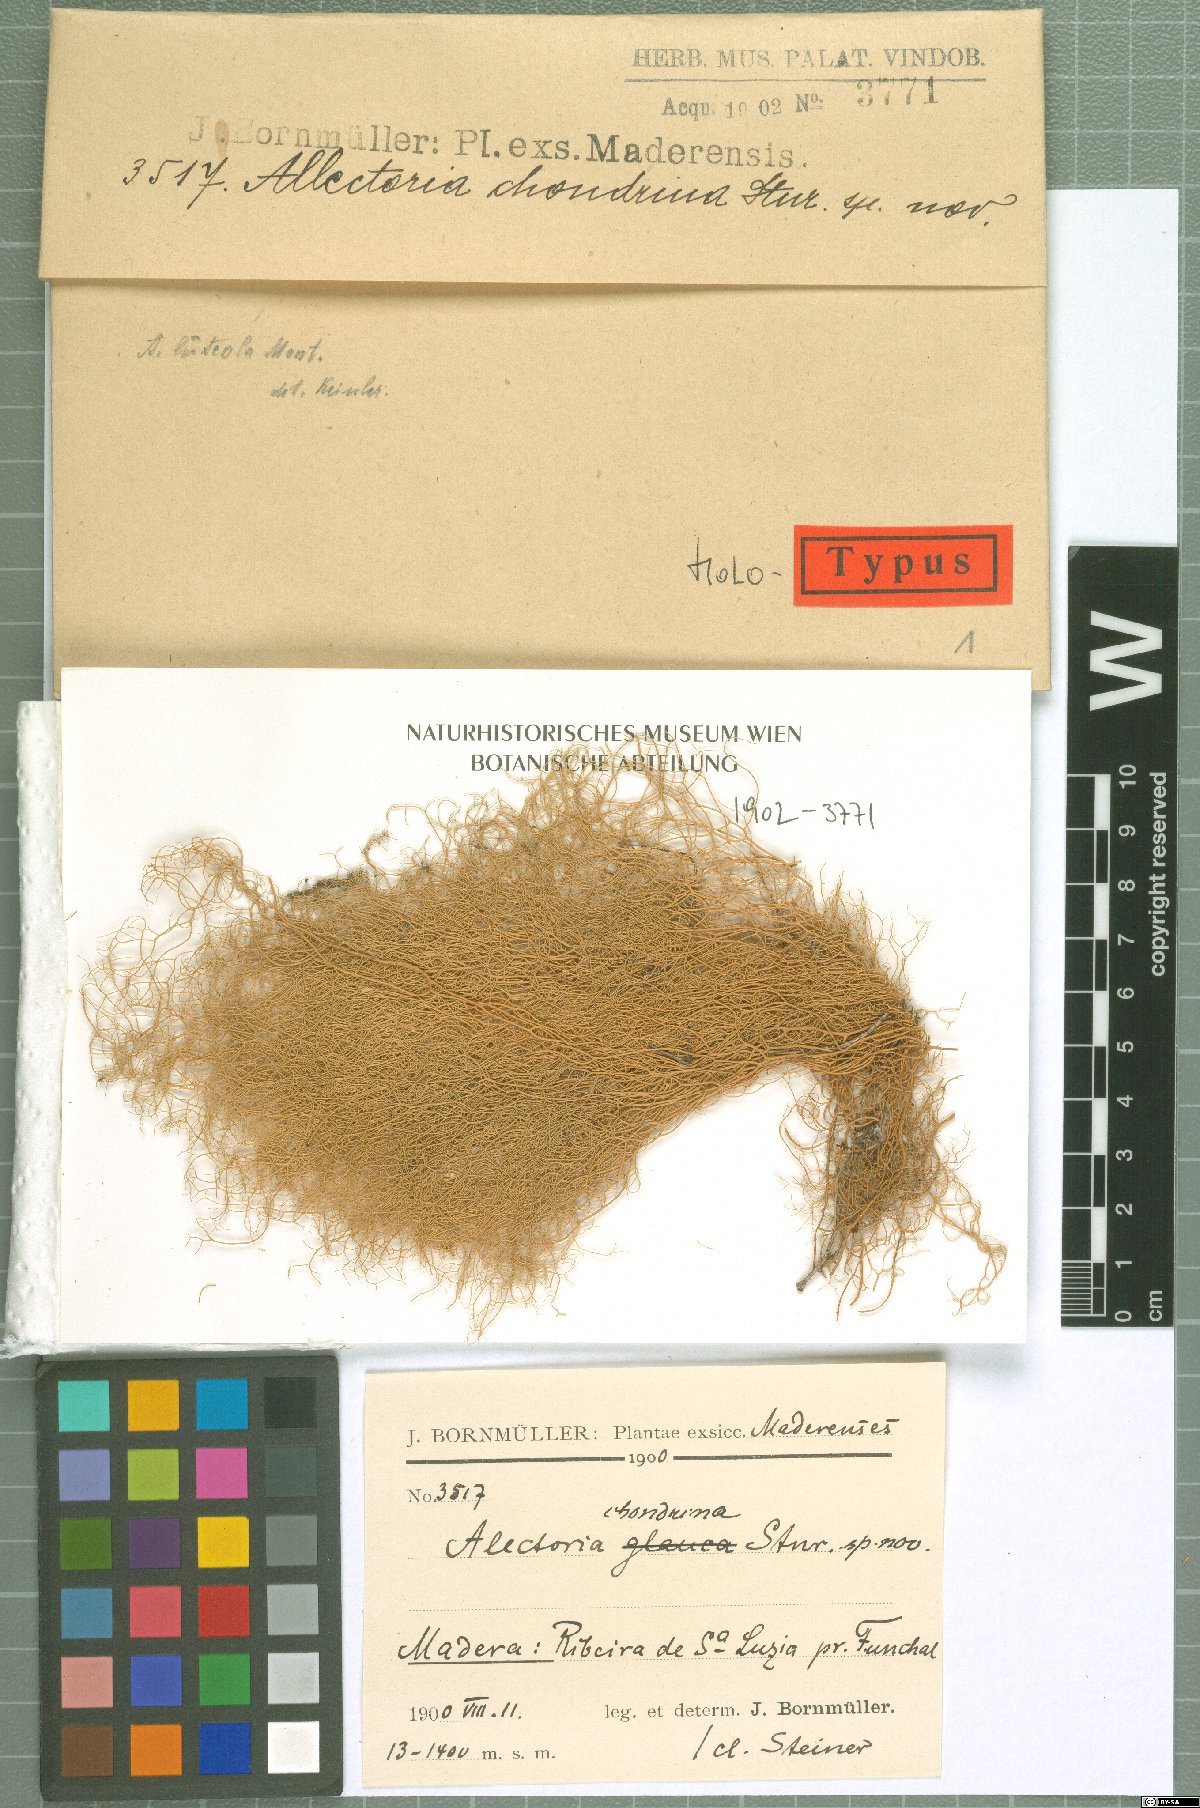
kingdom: Fungi
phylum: Ascomycota
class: Lecanoromycetes
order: Lecanorales
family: Parmeliaceae
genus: Alectoria
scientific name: Alectoria
